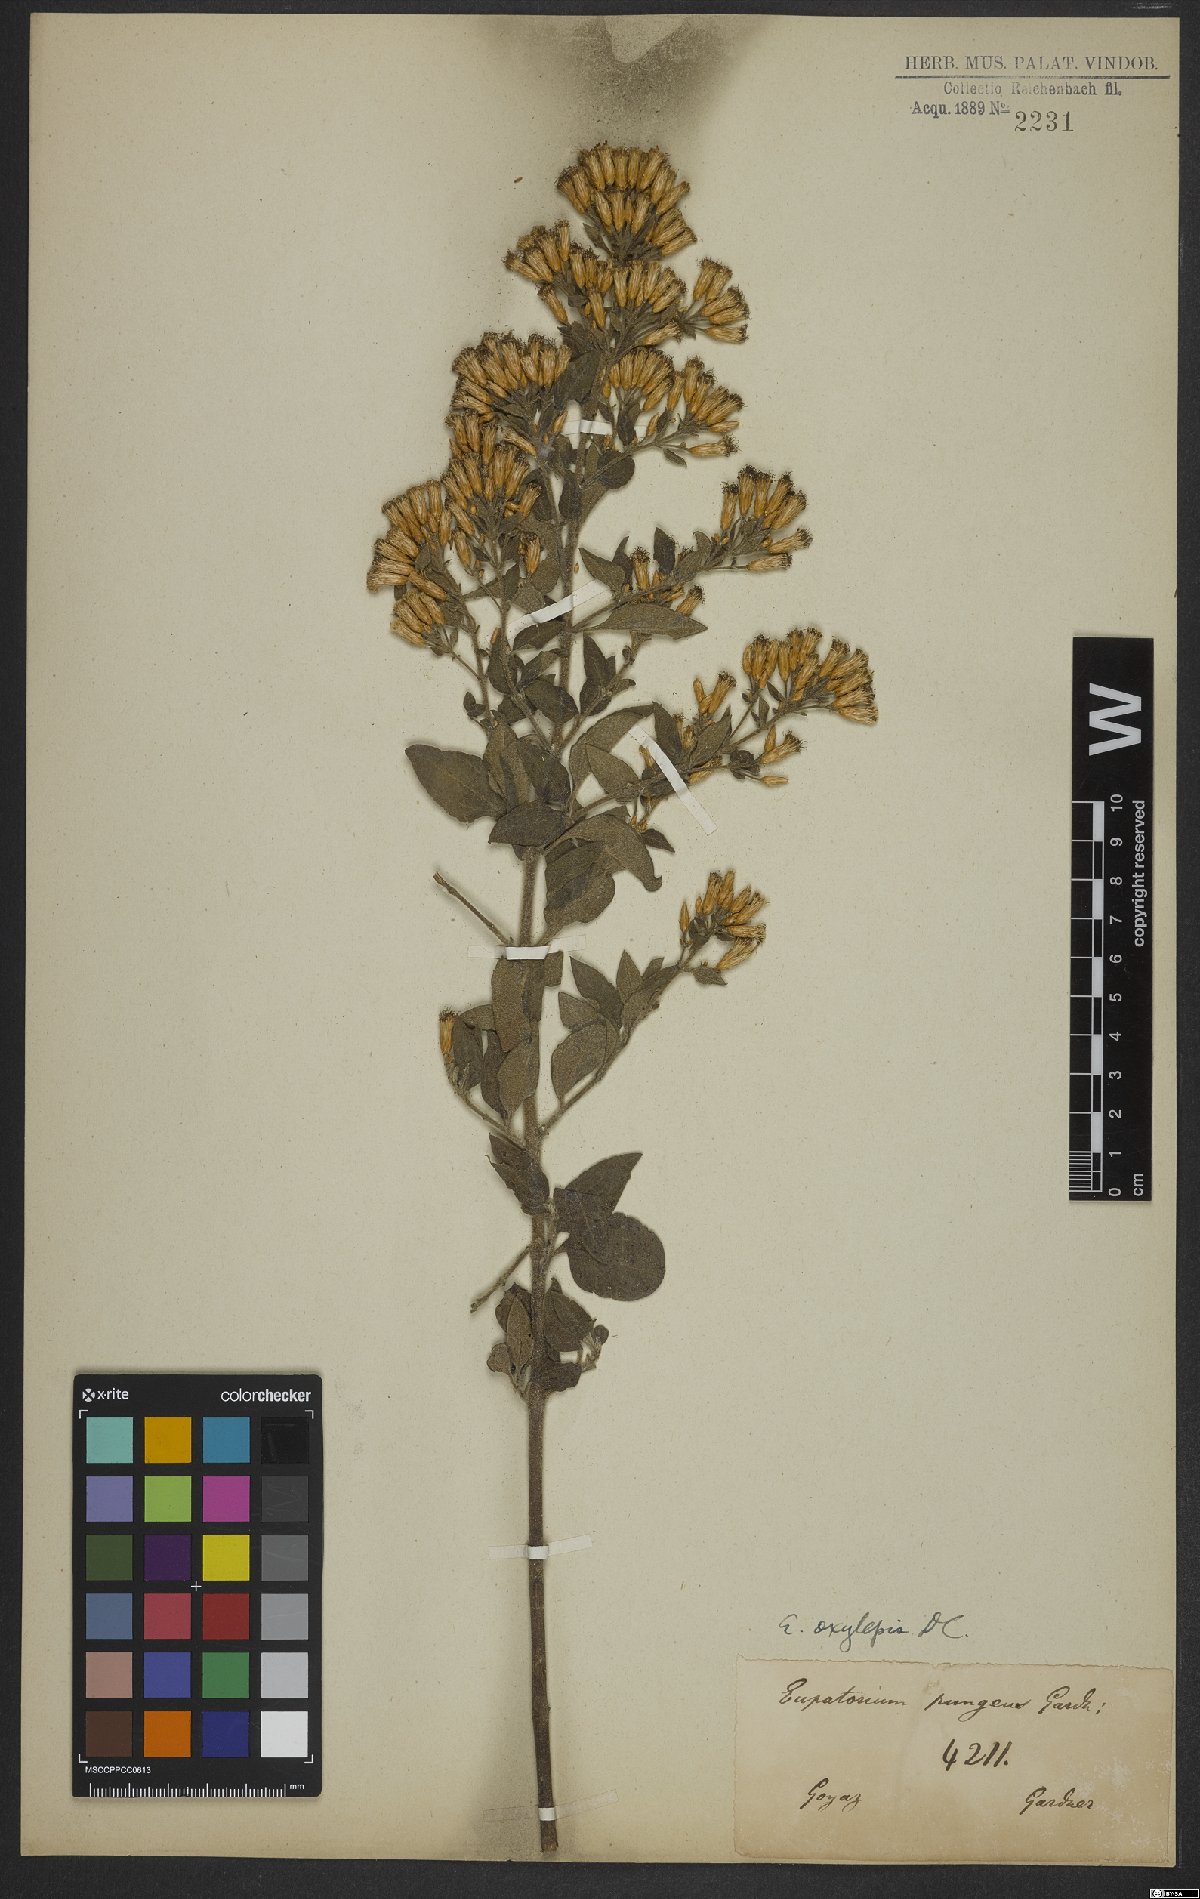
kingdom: Plantae
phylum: Tracheophyta
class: Magnoliopsida
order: Asterales
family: Asteraceae
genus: Chromolaena
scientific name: Chromolaena oxylepis
